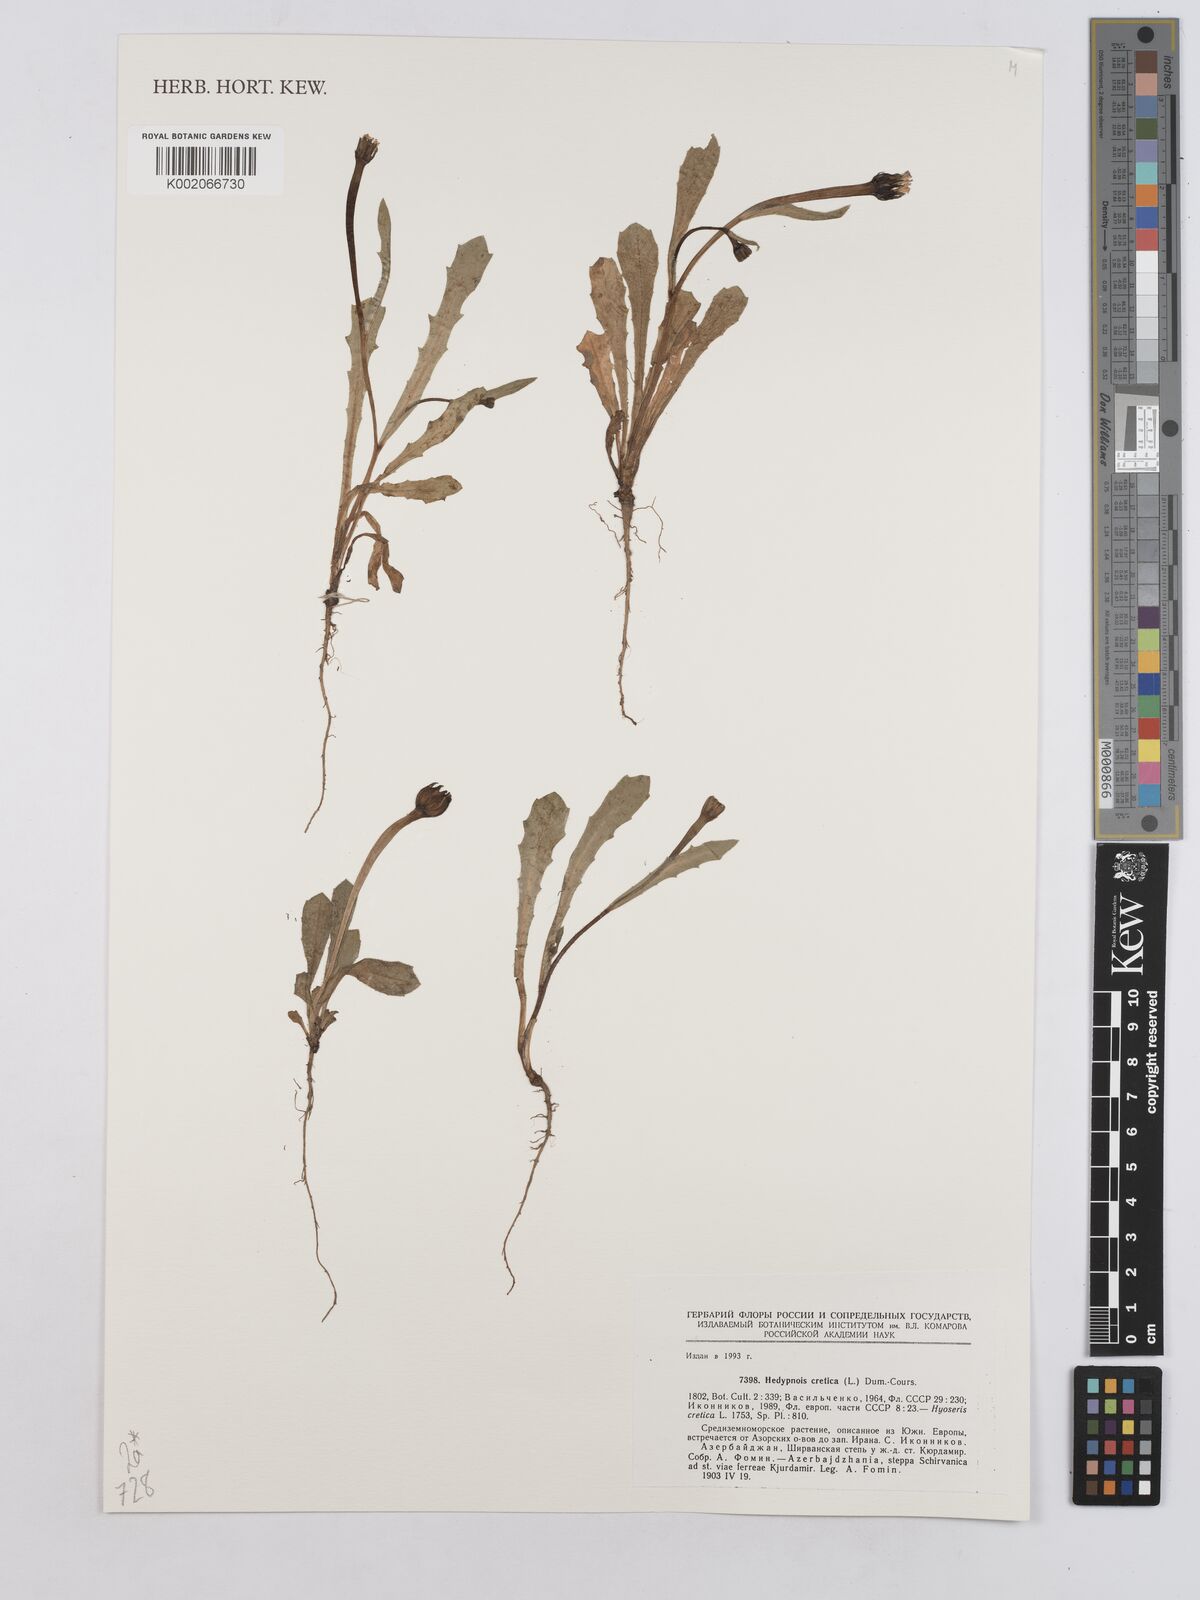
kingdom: Plantae
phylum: Tracheophyta
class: Magnoliopsida
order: Asterales
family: Asteraceae
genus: Hedypnois
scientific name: Hedypnois cretica
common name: Scaly hawkbit
